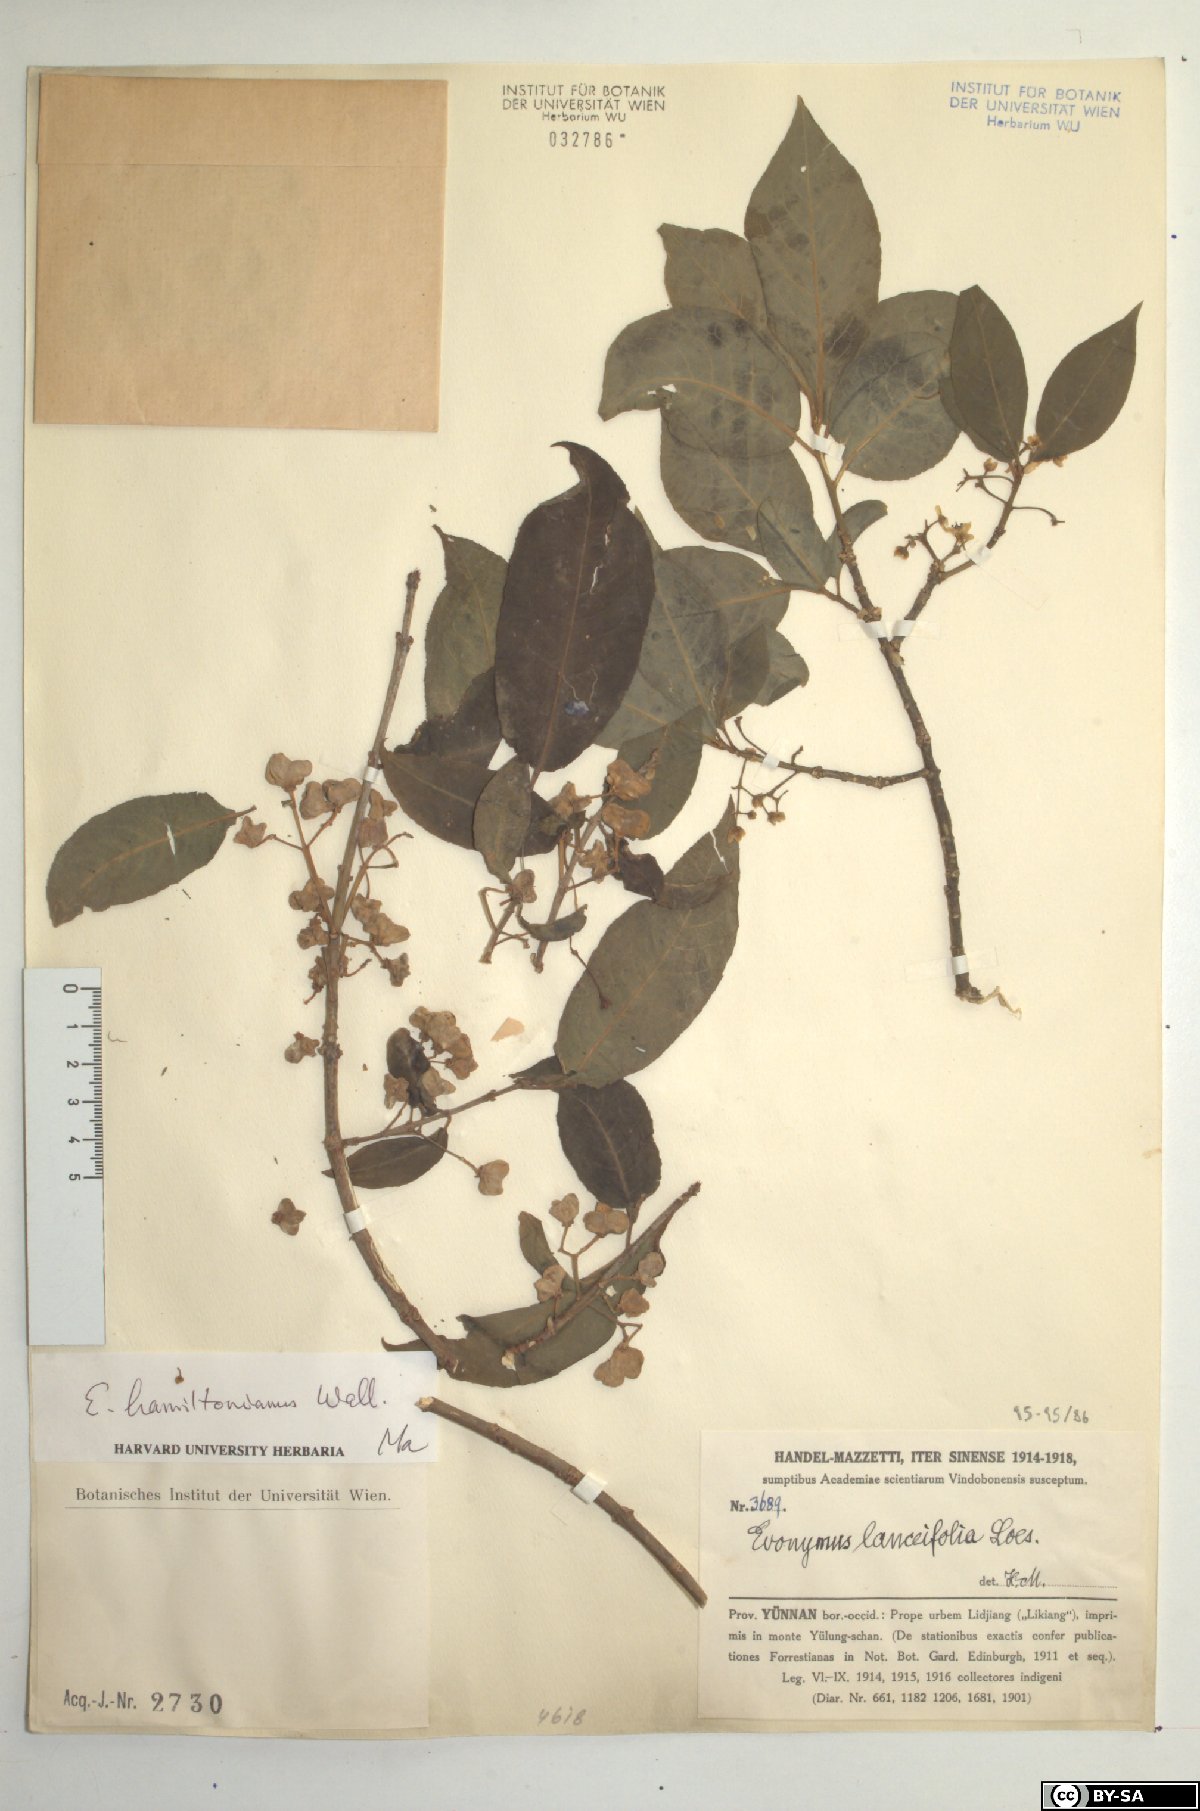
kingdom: Plantae
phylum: Tracheophyta
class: Magnoliopsida
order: Celastrales
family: Celastraceae
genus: Euonymus
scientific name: Euonymus hamiltonianus
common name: Hamilton's spindletree
